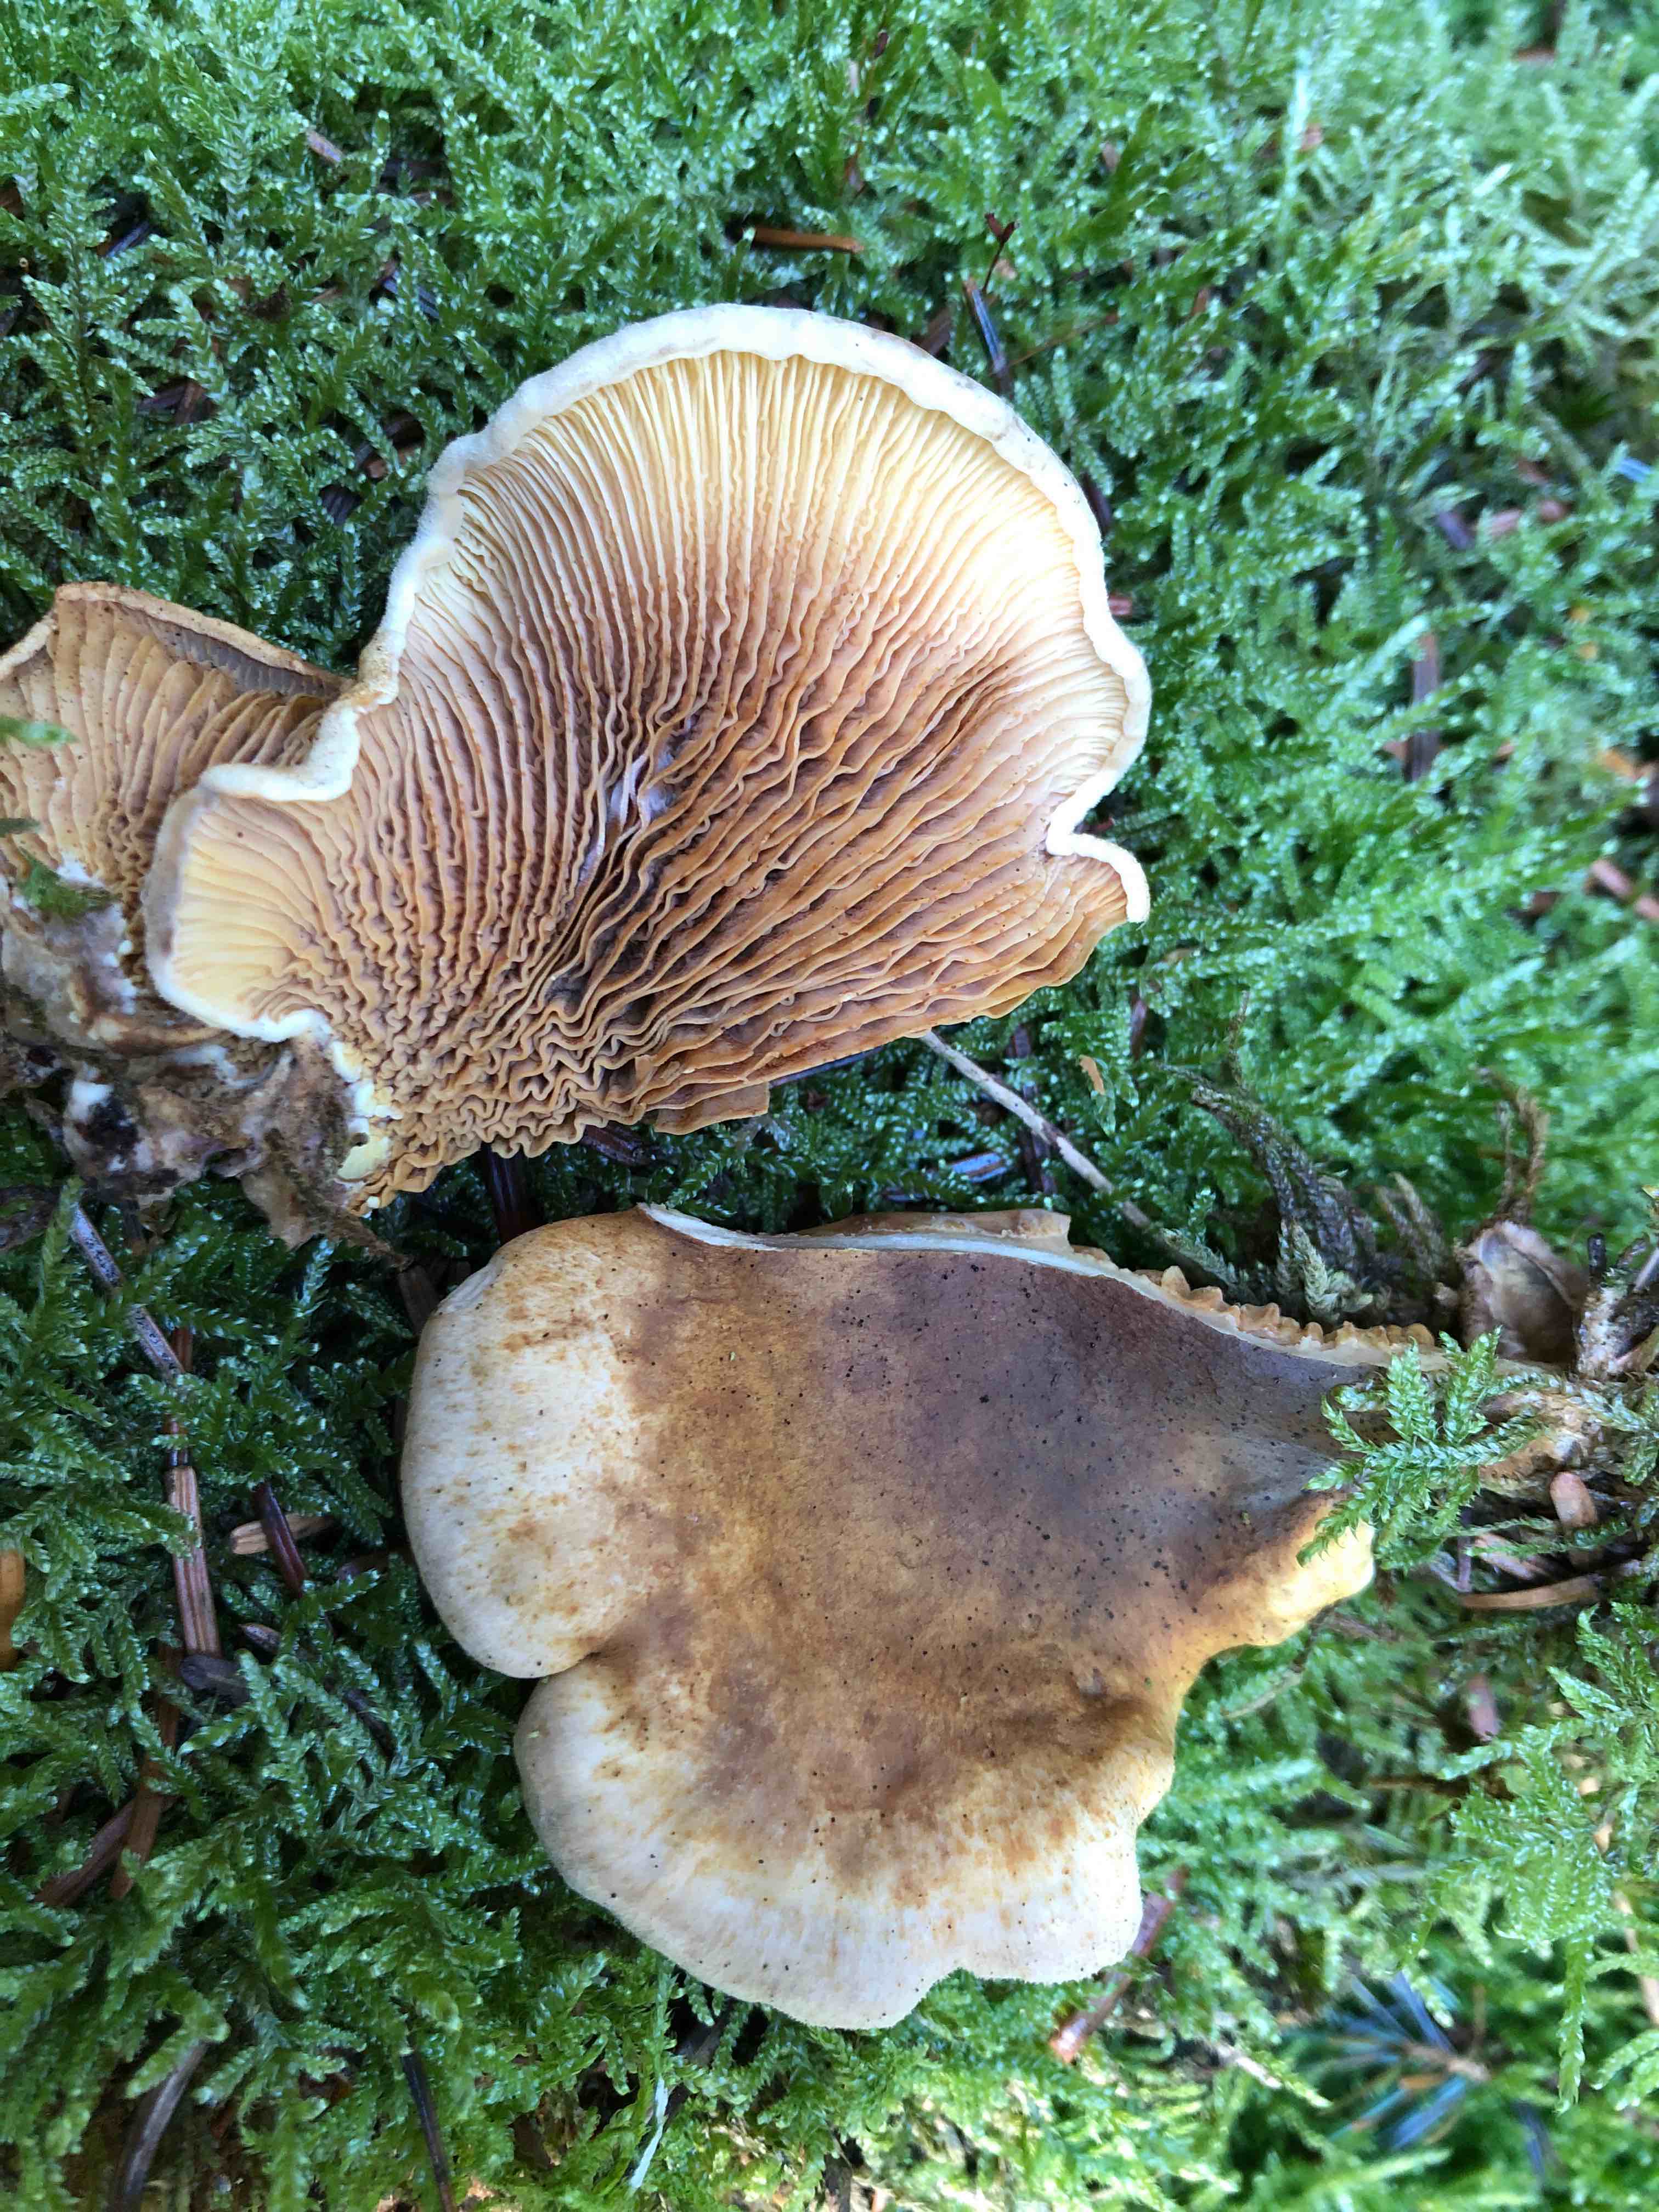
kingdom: Fungi
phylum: Basidiomycota
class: Agaricomycetes
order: Boletales
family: Tapinellaceae
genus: Tapinella
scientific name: Tapinella panuoides
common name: tømmer-viftesvamp
